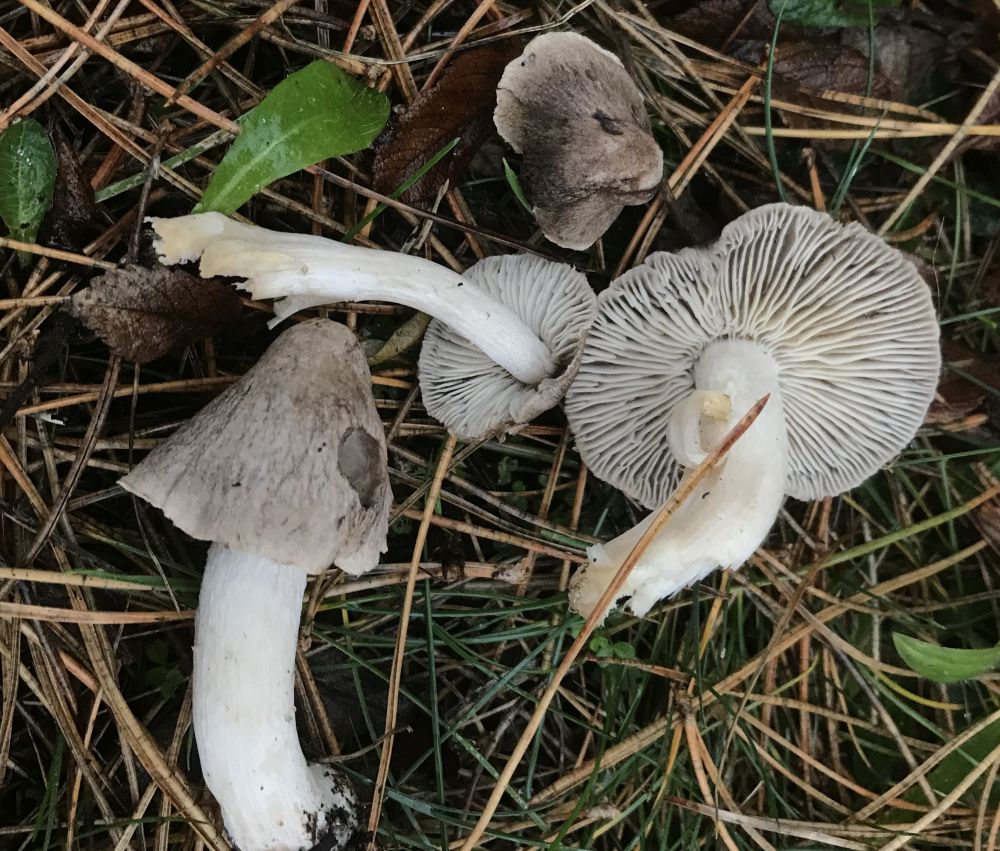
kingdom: Fungi
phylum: Basidiomycota
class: Agaricomycetes
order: Agaricales
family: Tricholomataceae
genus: Tricholoma
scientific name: Tricholoma terreum
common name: jordfarvet ridderhat
